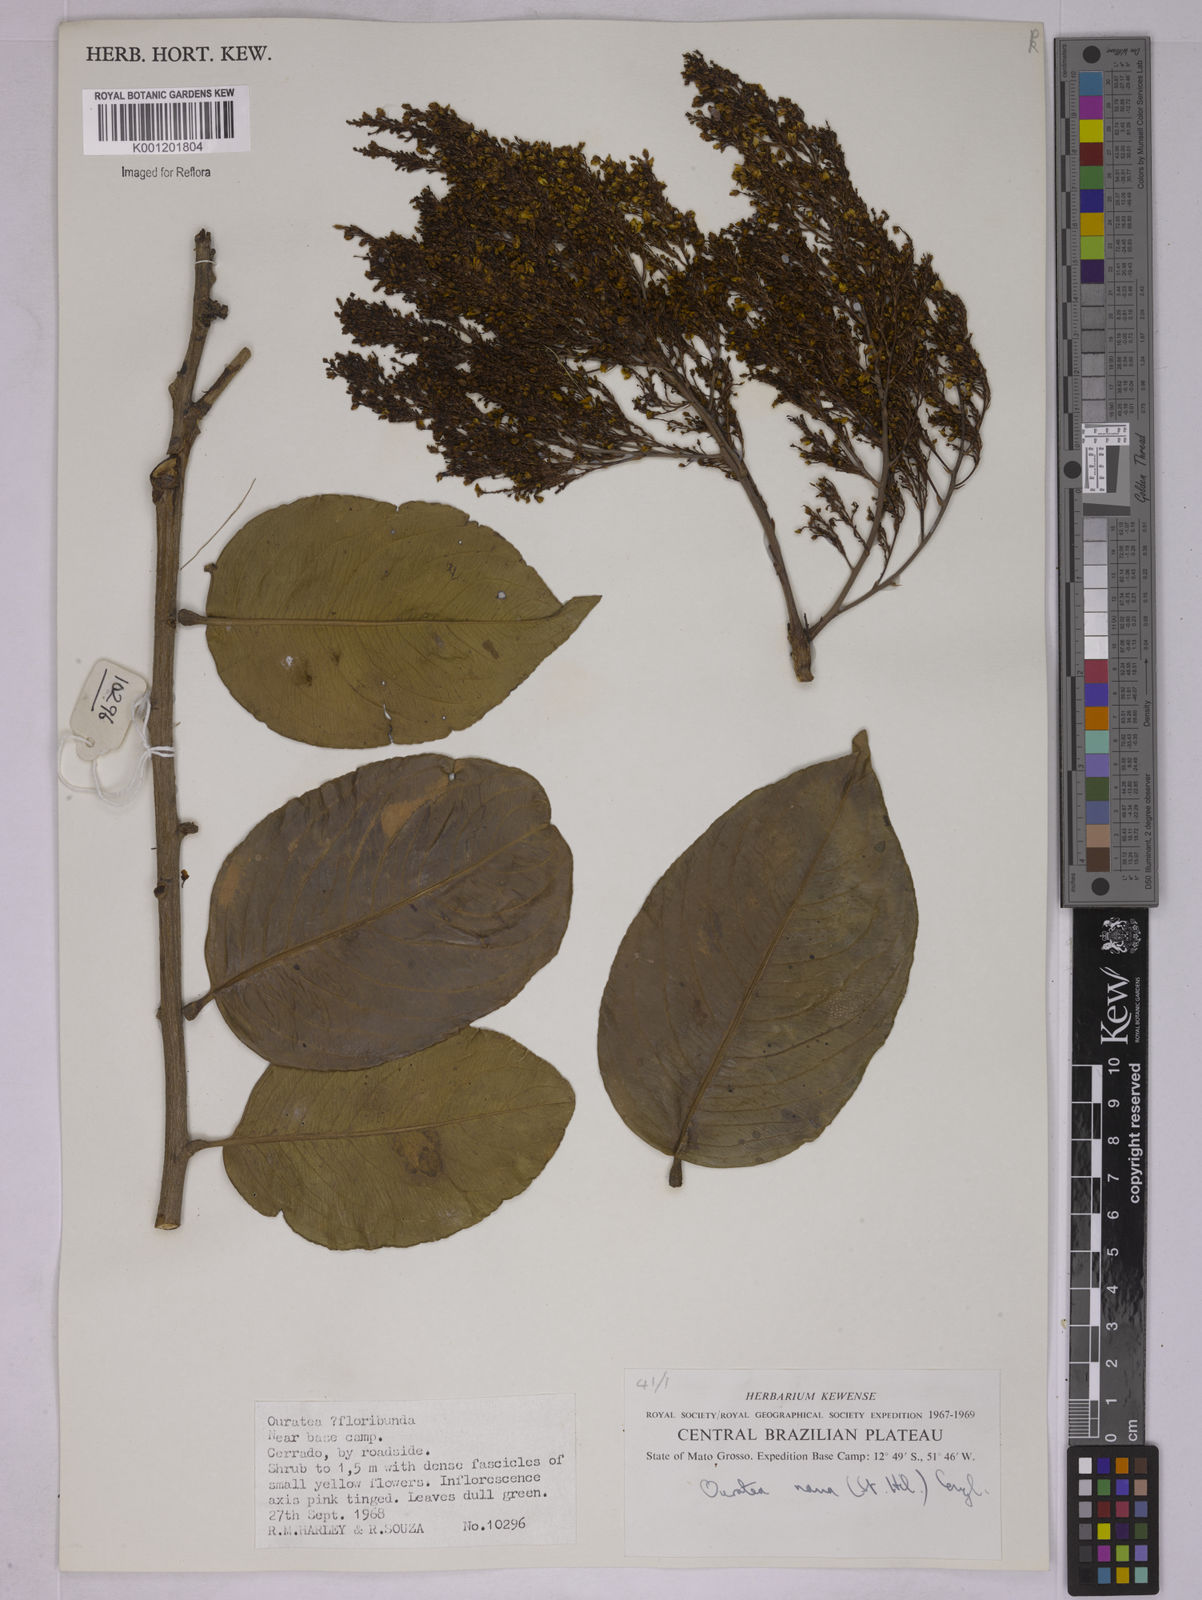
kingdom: Plantae
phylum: Tracheophyta
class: Magnoliopsida
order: Malpighiales
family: Ochnaceae
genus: Ouratea
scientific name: Ouratea nana
